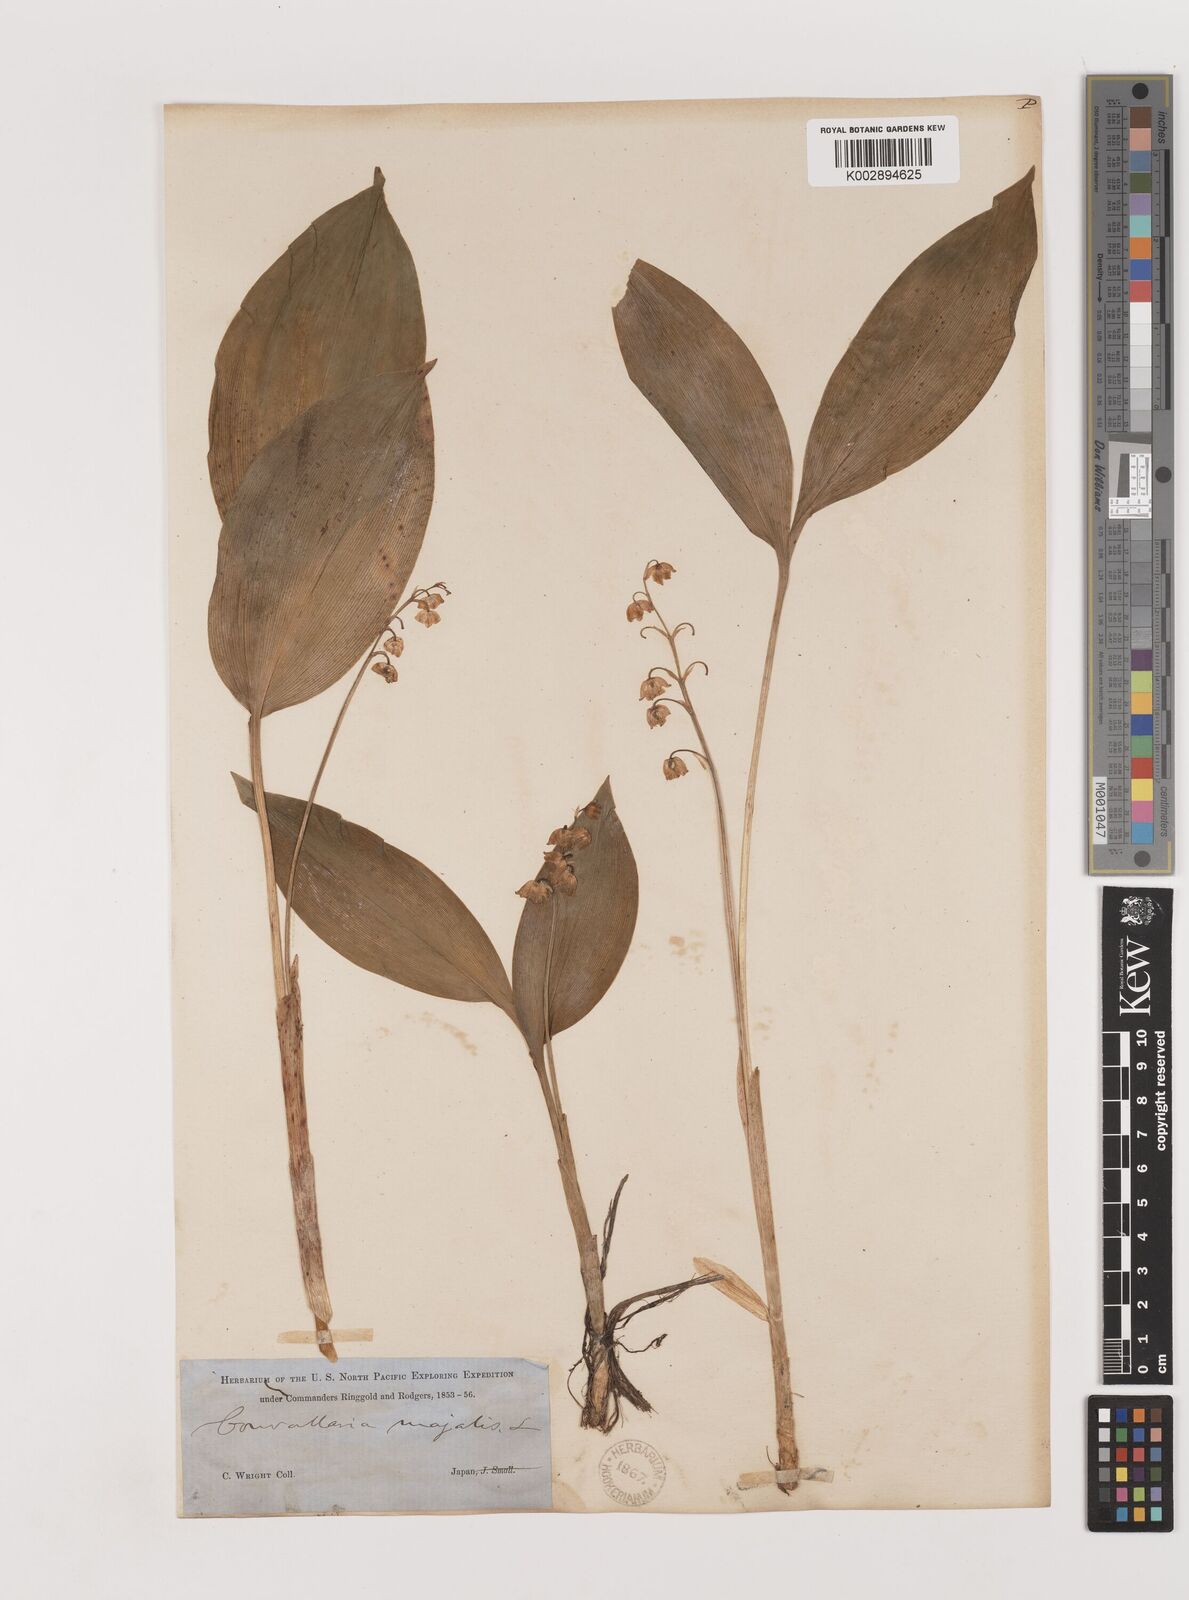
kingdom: Plantae
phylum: Tracheophyta
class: Liliopsida
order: Asparagales
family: Asparagaceae
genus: Ophiopogon
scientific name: Ophiopogon
